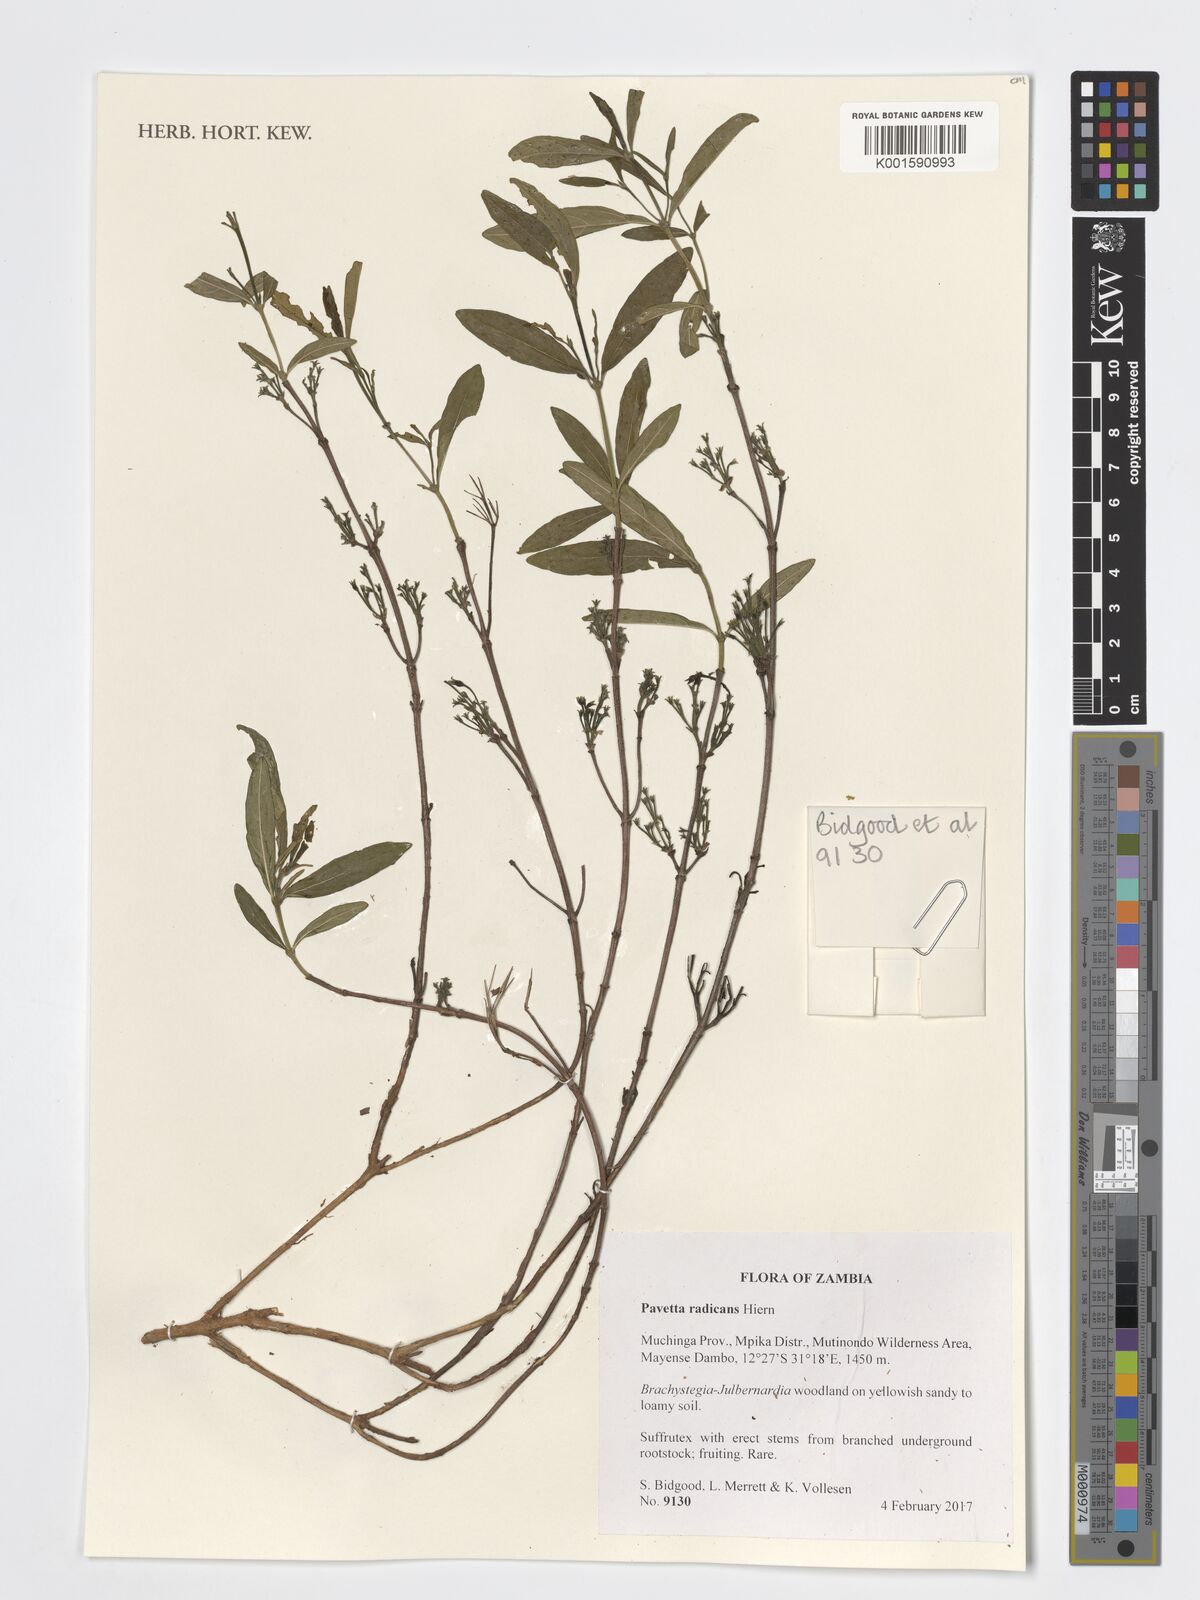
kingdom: Plantae
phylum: Tracheophyta
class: Magnoliopsida
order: Gentianales
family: Rubiaceae
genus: Pavetta
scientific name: Pavetta radicans
